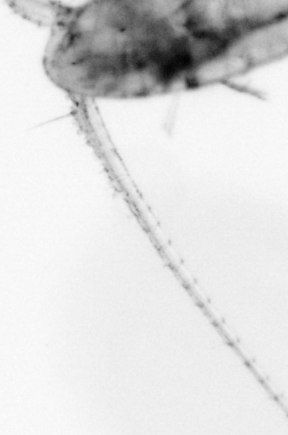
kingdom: Animalia
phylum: Arthropoda
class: Copepoda
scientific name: Copepoda
